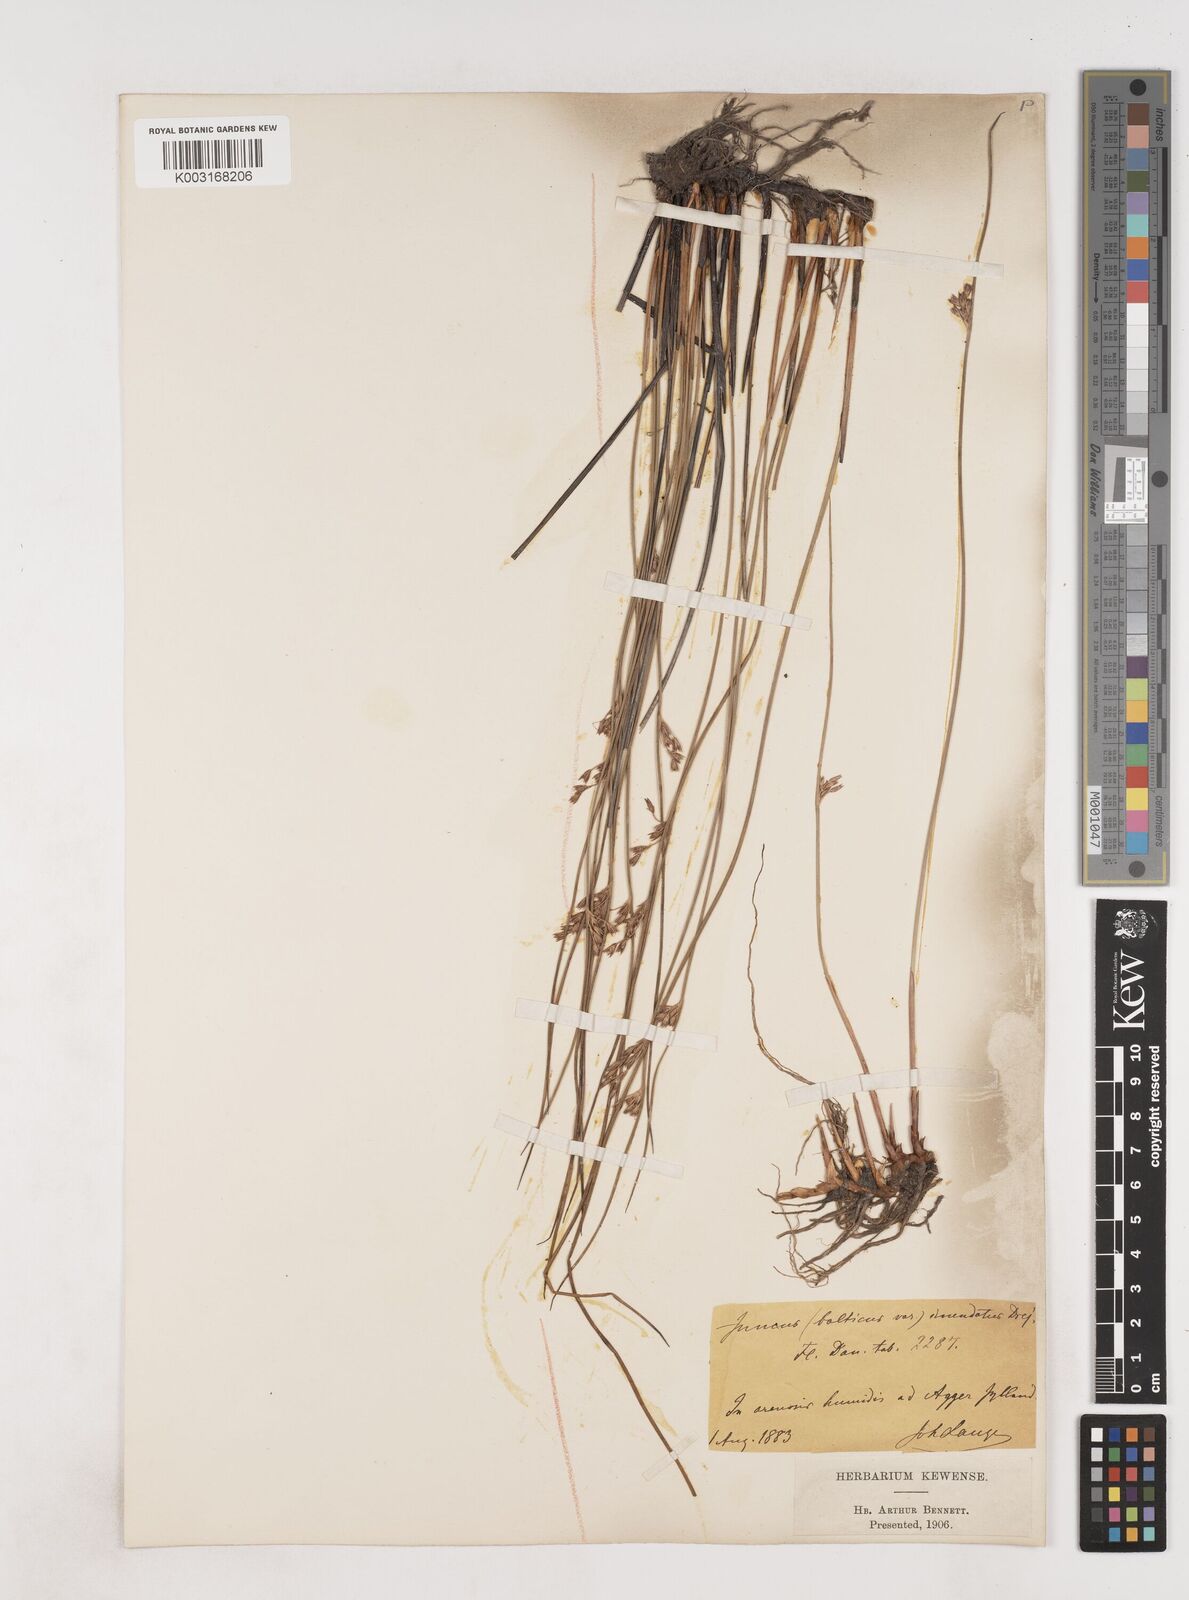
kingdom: Plantae
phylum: Tracheophyta
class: Liliopsida
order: Poales
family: Juncaceae
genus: Juncus
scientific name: Juncus balticus
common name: Baltic rush
